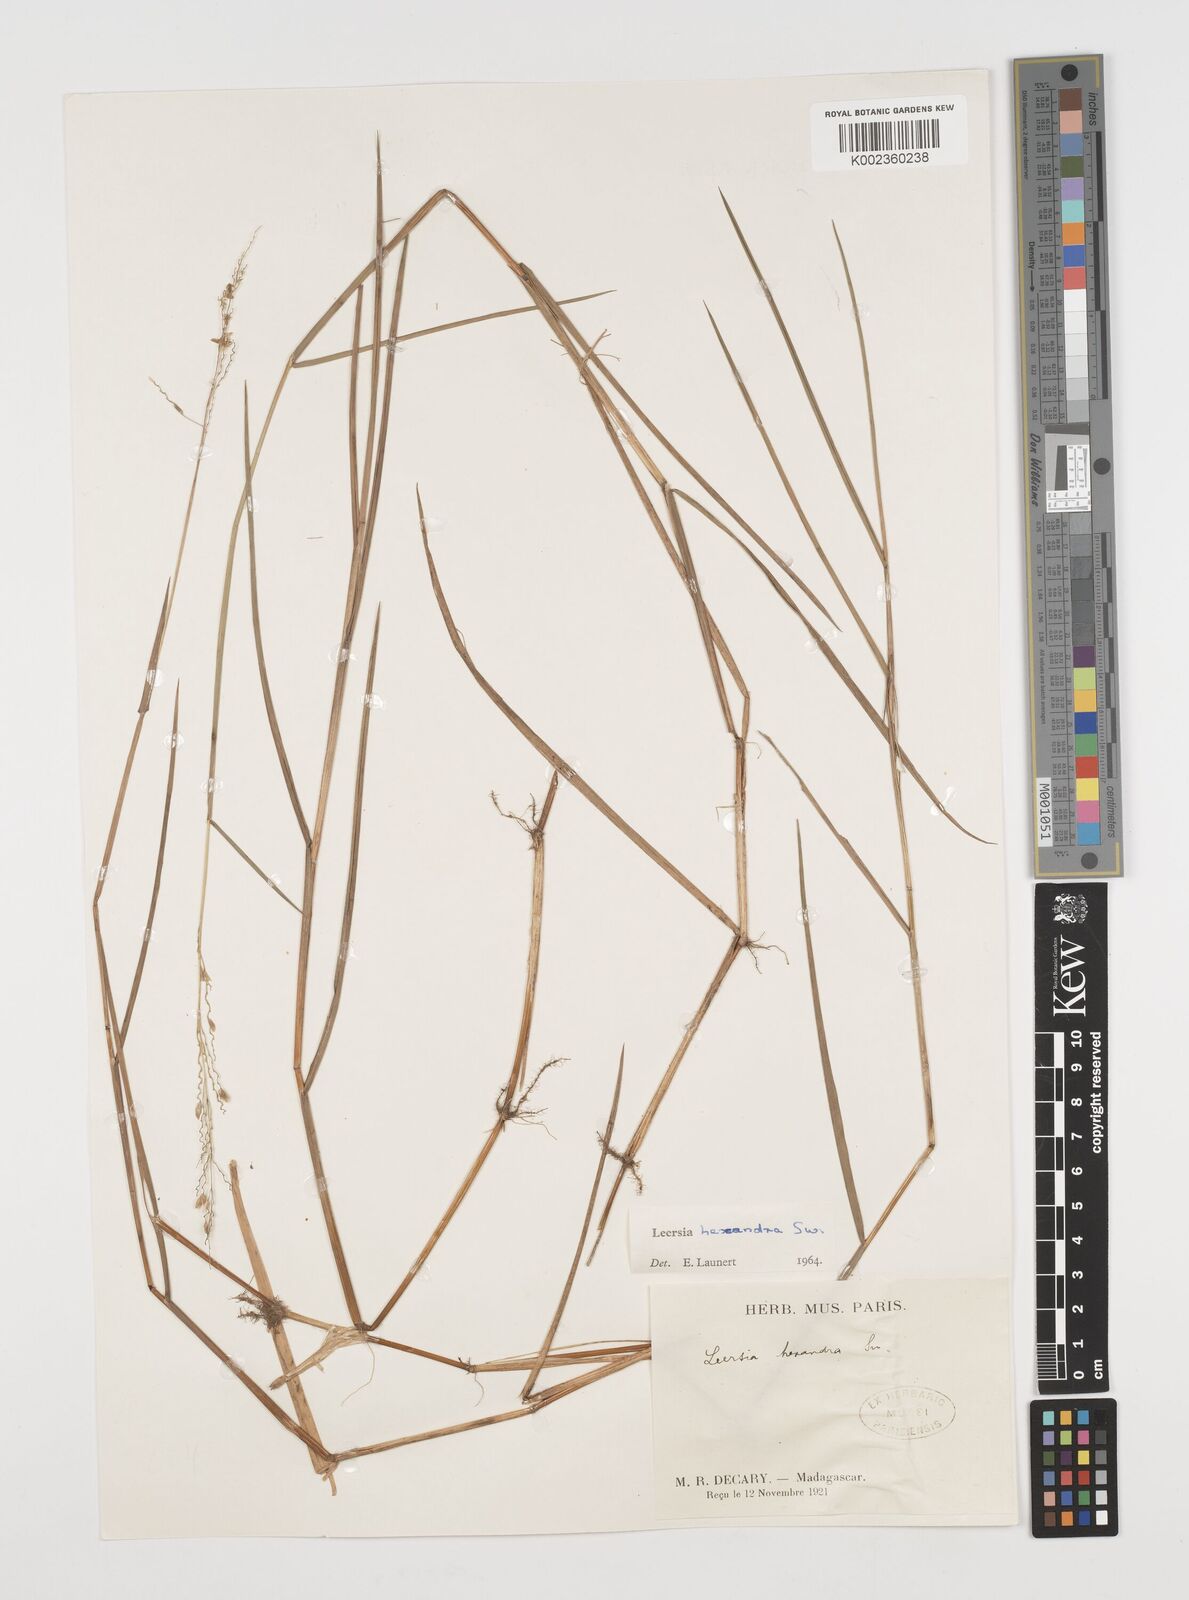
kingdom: Plantae
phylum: Tracheophyta
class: Liliopsida
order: Poales
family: Poaceae
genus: Leersia
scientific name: Leersia hexandra
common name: Southern cut grass
